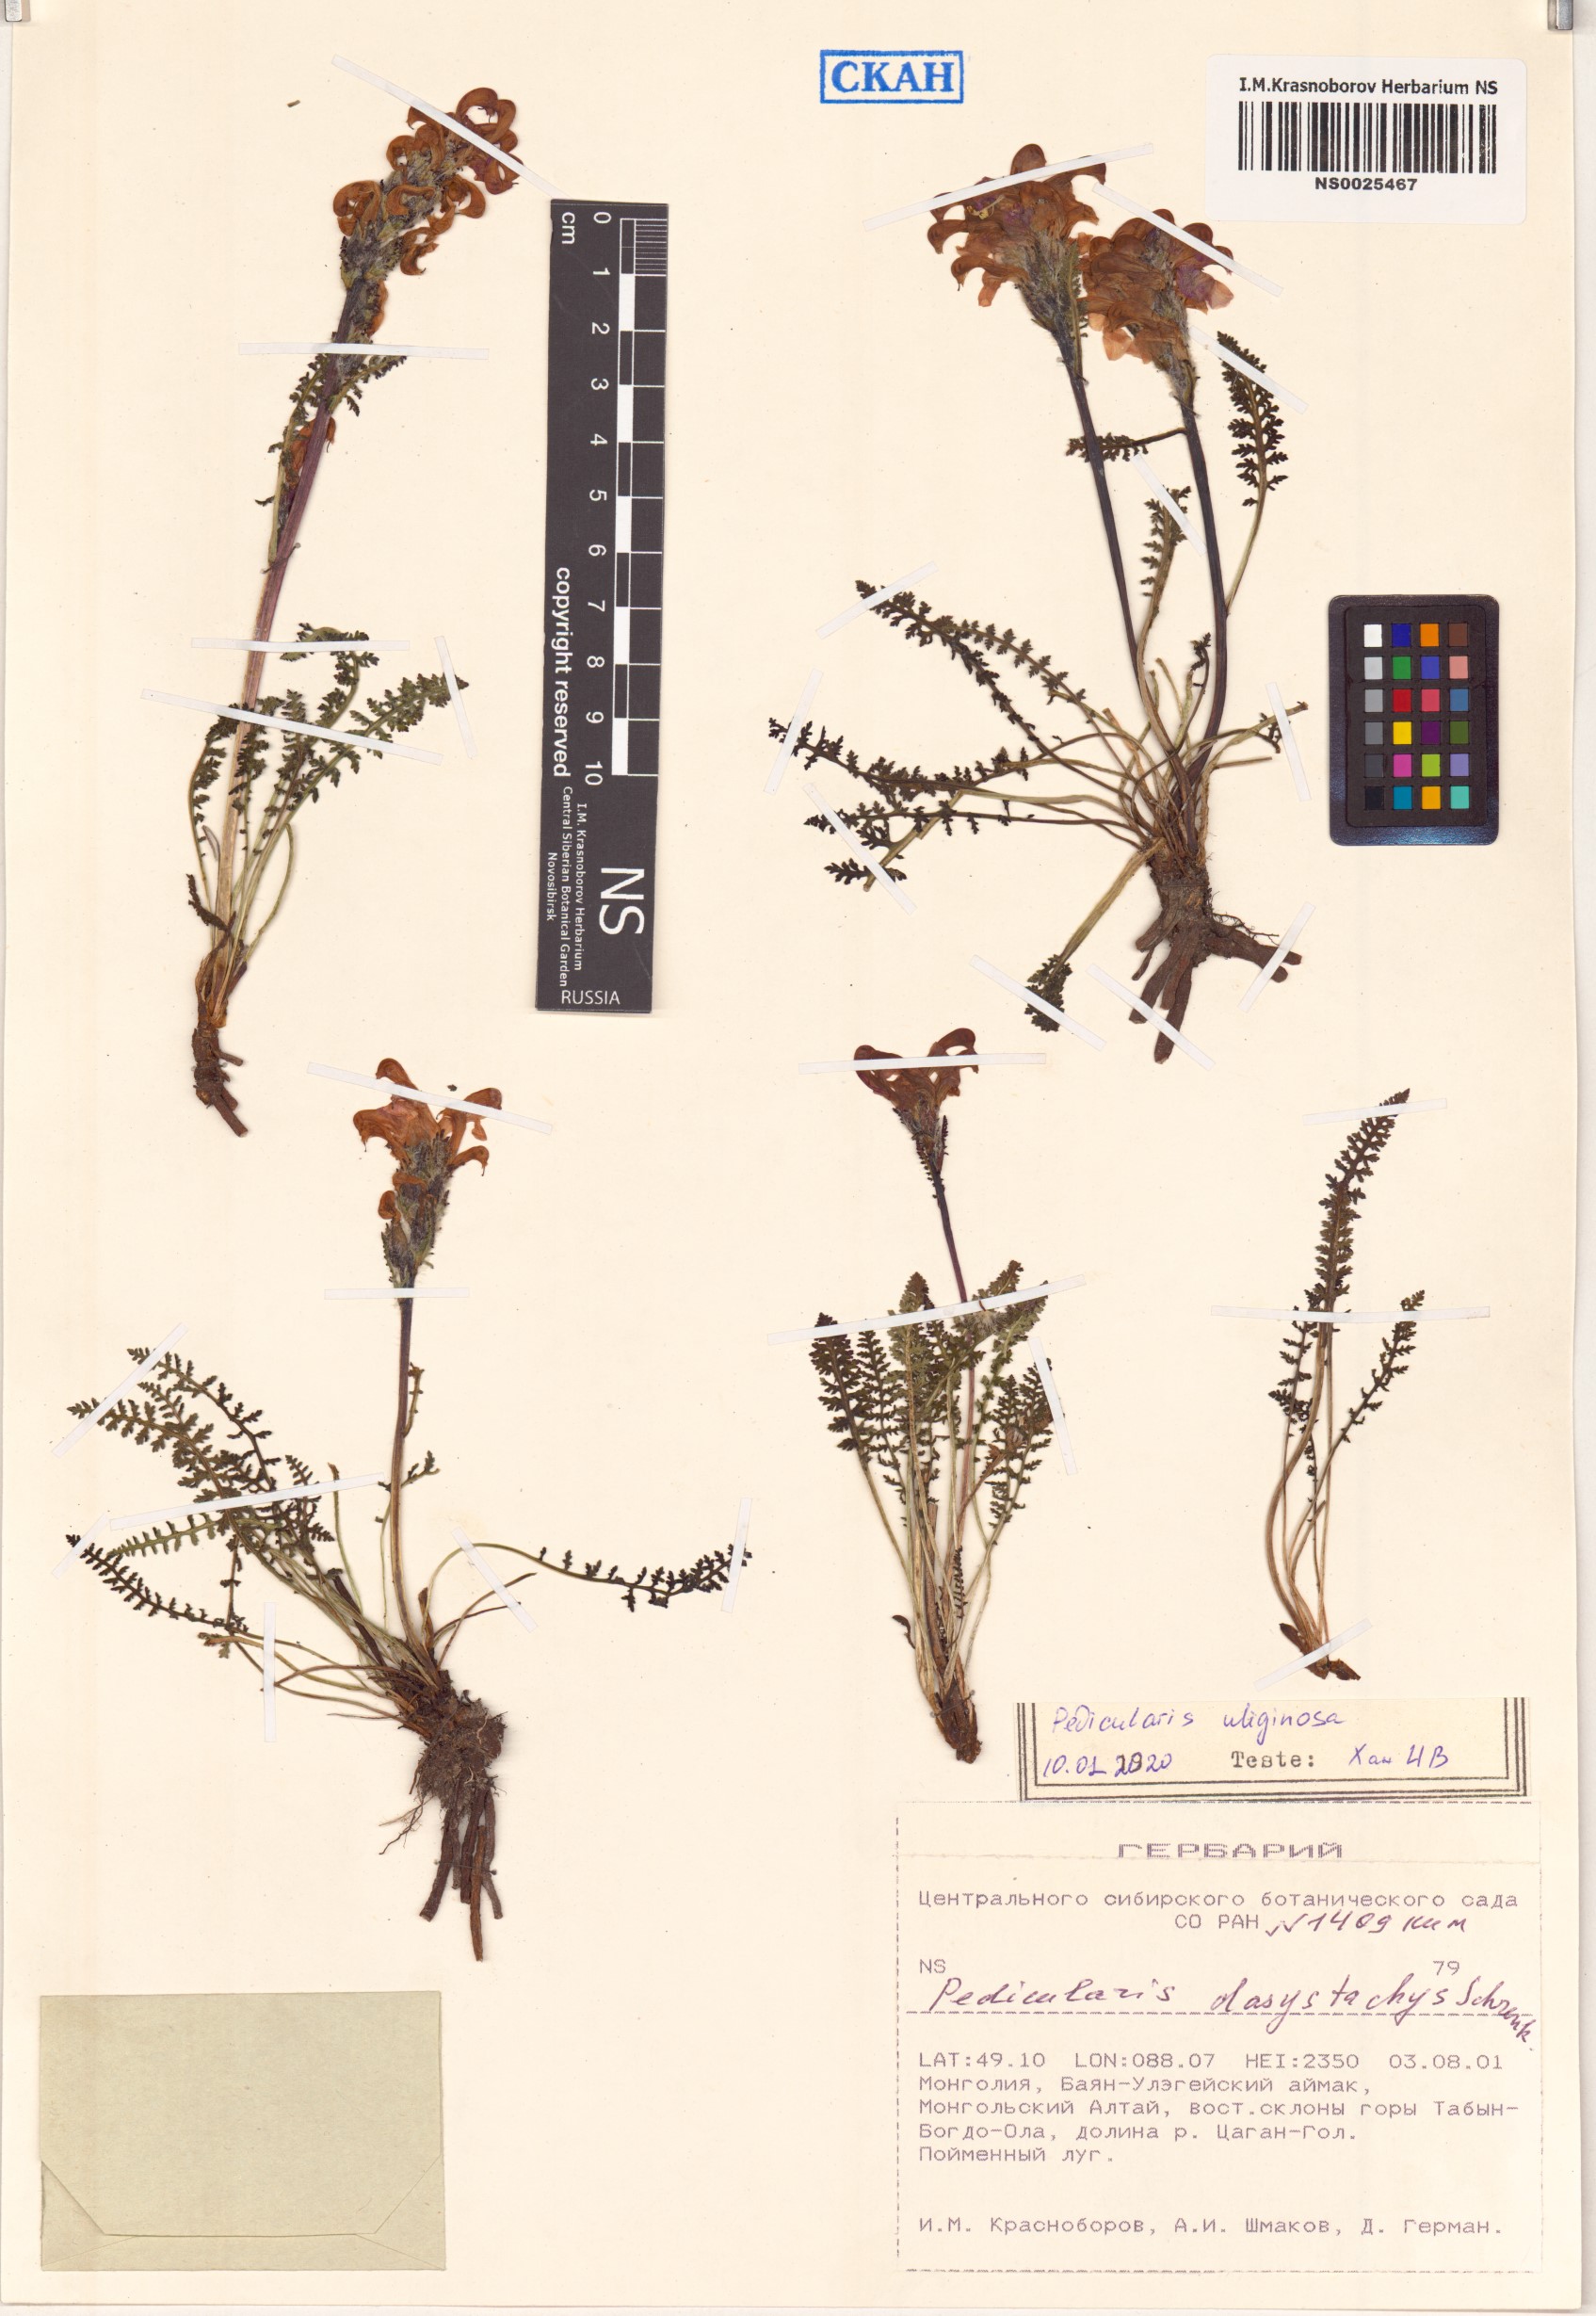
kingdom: Plantae
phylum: Tracheophyta
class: Magnoliopsida
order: Lamiales
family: Orobanchaceae
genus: Pedicularis
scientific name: Pedicularis uliginosa
